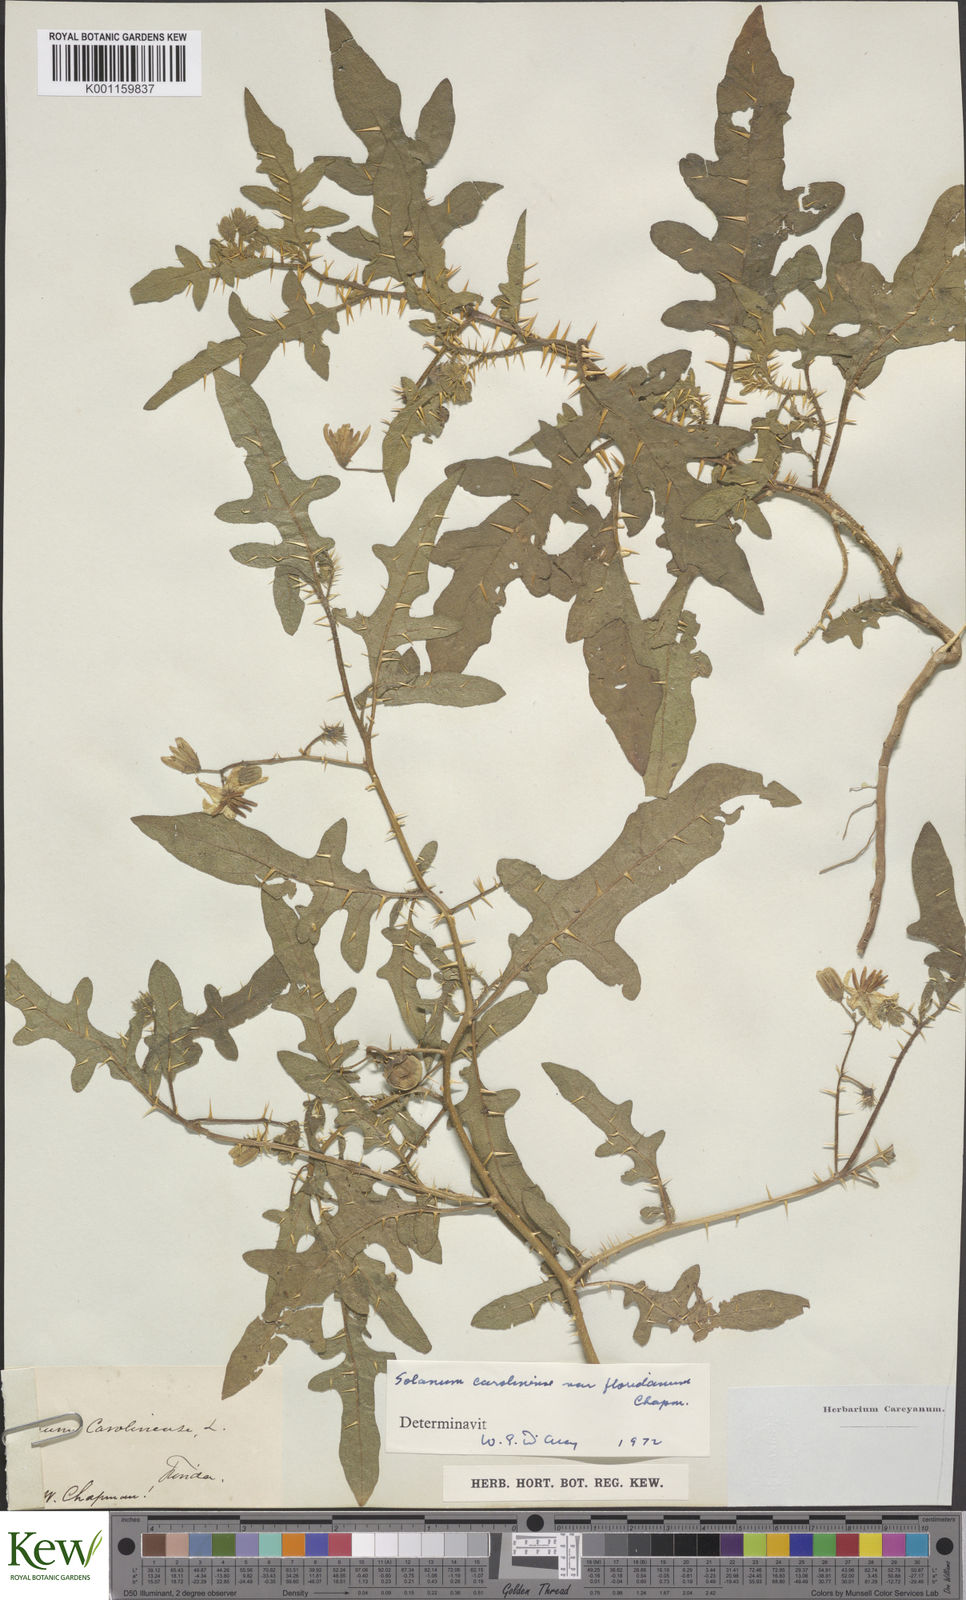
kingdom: Plantae
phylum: Tracheophyta
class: Magnoliopsida
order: Solanales
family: Solanaceae
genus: Solanum
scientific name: Solanum carolinense
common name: Horse-nettle
